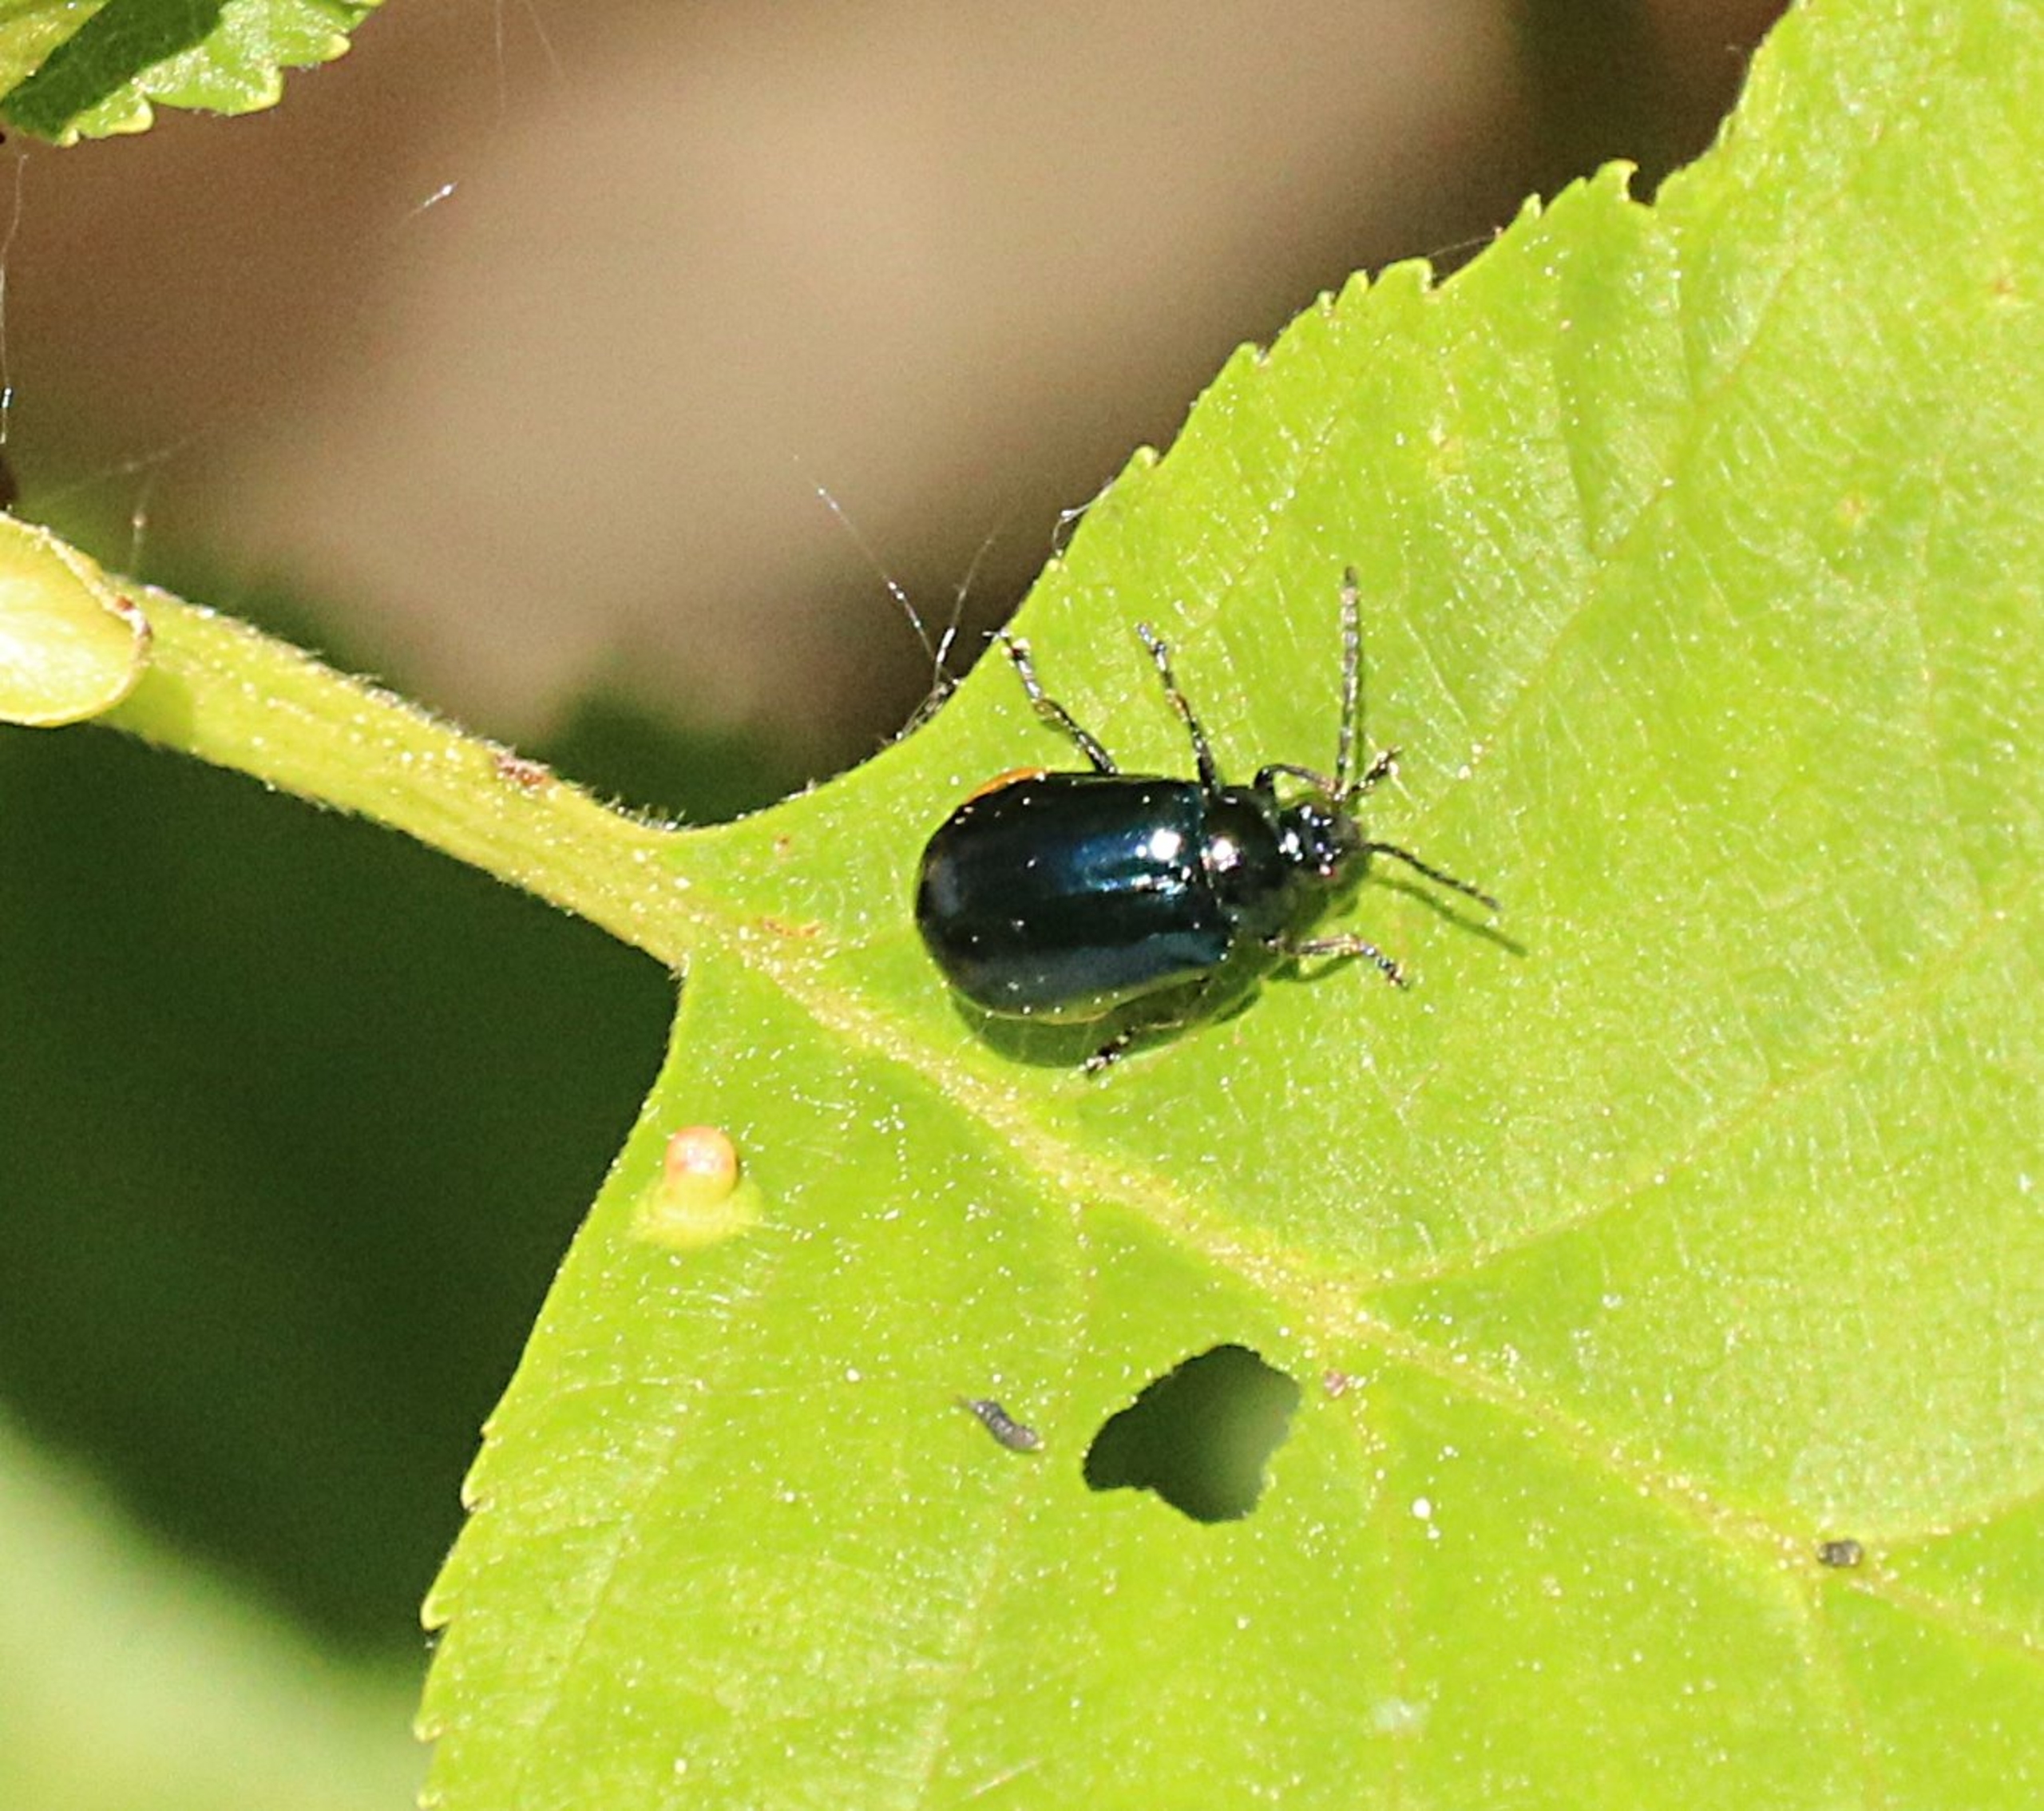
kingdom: Animalia
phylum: Arthropoda
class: Insecta
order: Coleoptera
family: Chrysomelidae
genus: Agelastica
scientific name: Agelastica alni
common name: Ellebladbille
